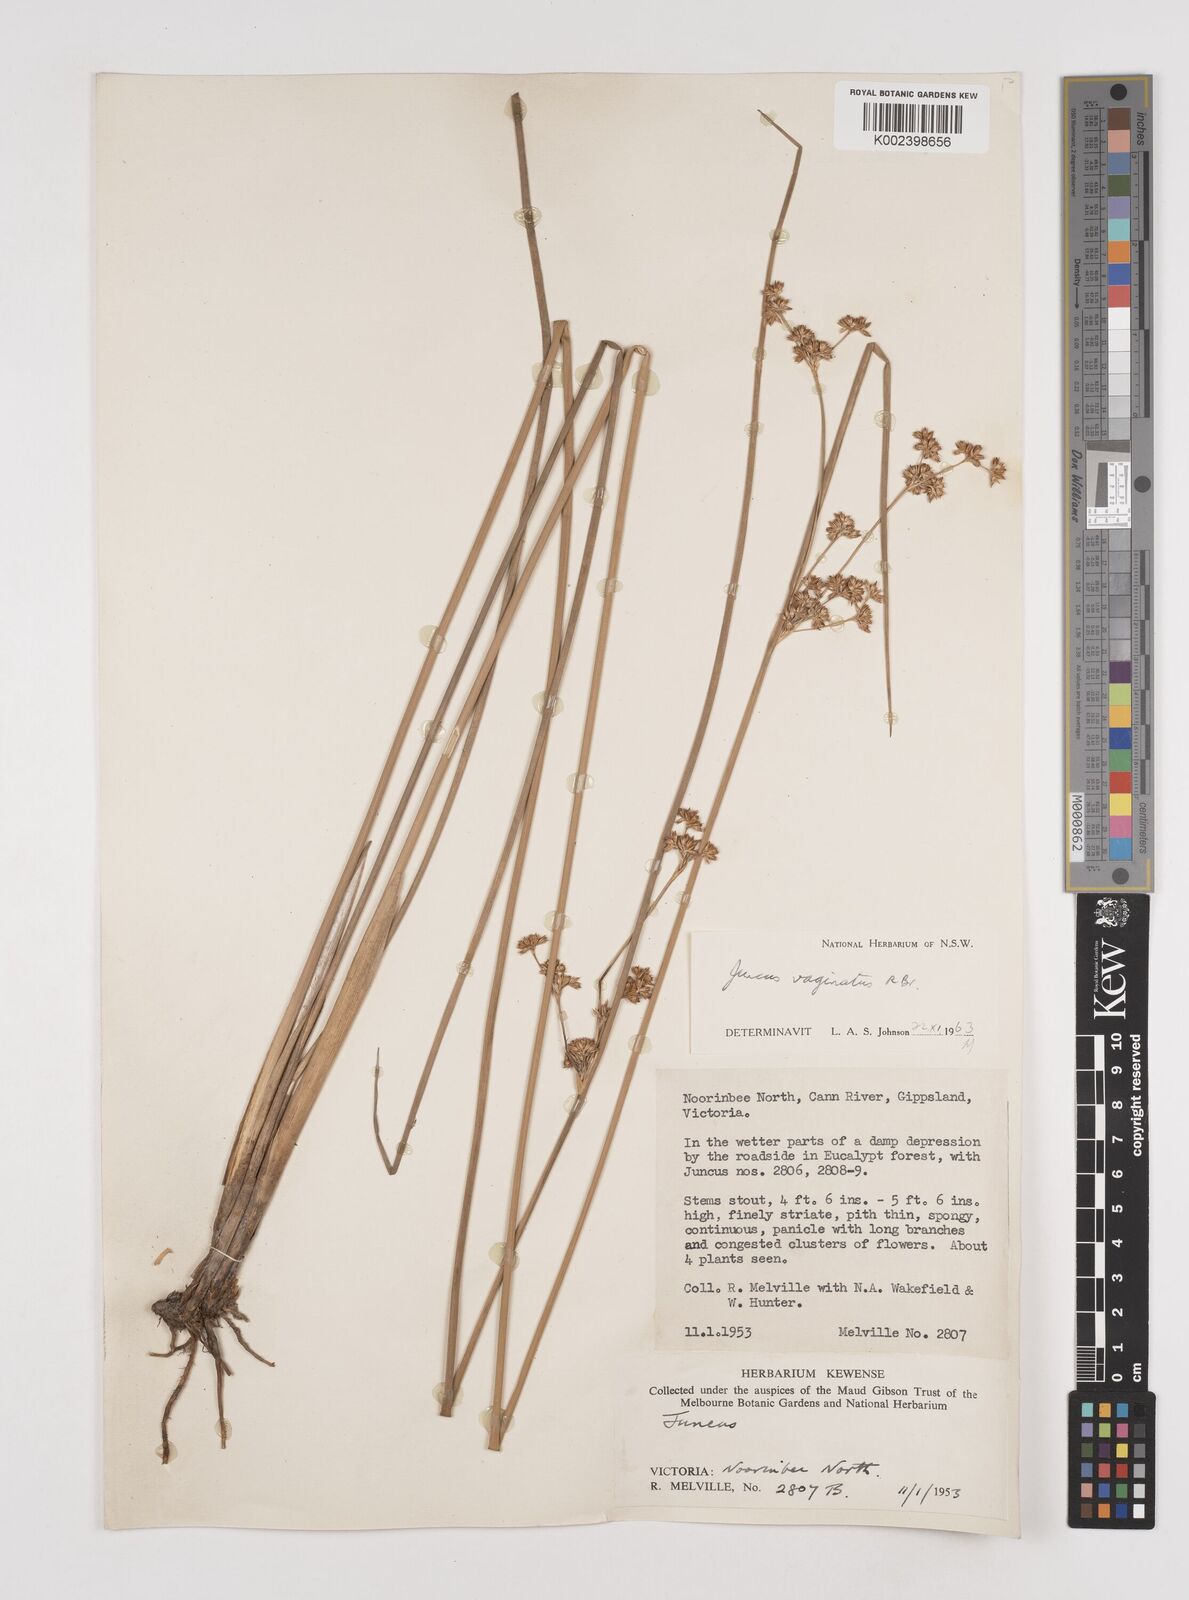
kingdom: Plantae
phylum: Tracheophyta
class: Liliopsida
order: Poales
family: Juncaceae
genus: Juncus
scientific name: Juncus vaginatus
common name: Clustered rush
